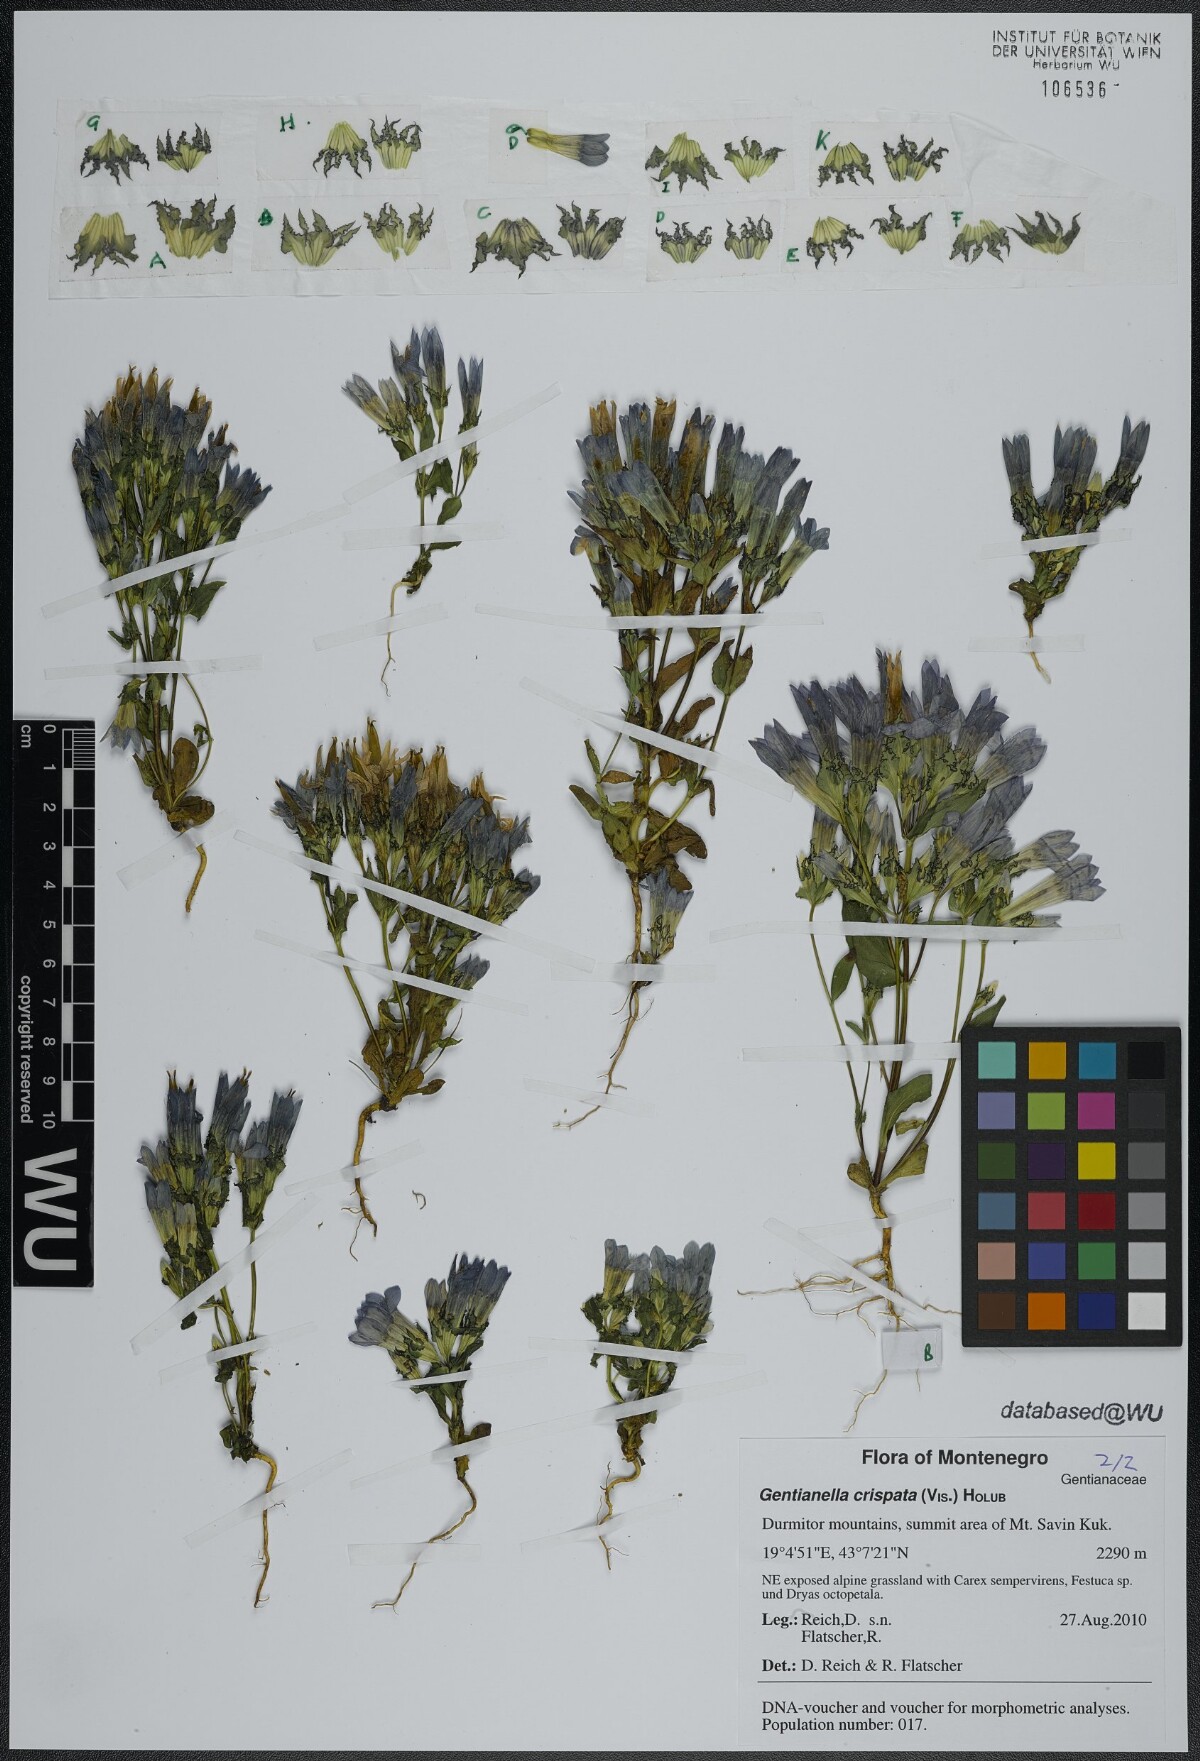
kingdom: Plantae
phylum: Tracheophyta
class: Magnoliopsida
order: Gentianales
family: Gentianaceae
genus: Gentianella
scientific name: Gentianella crispata
